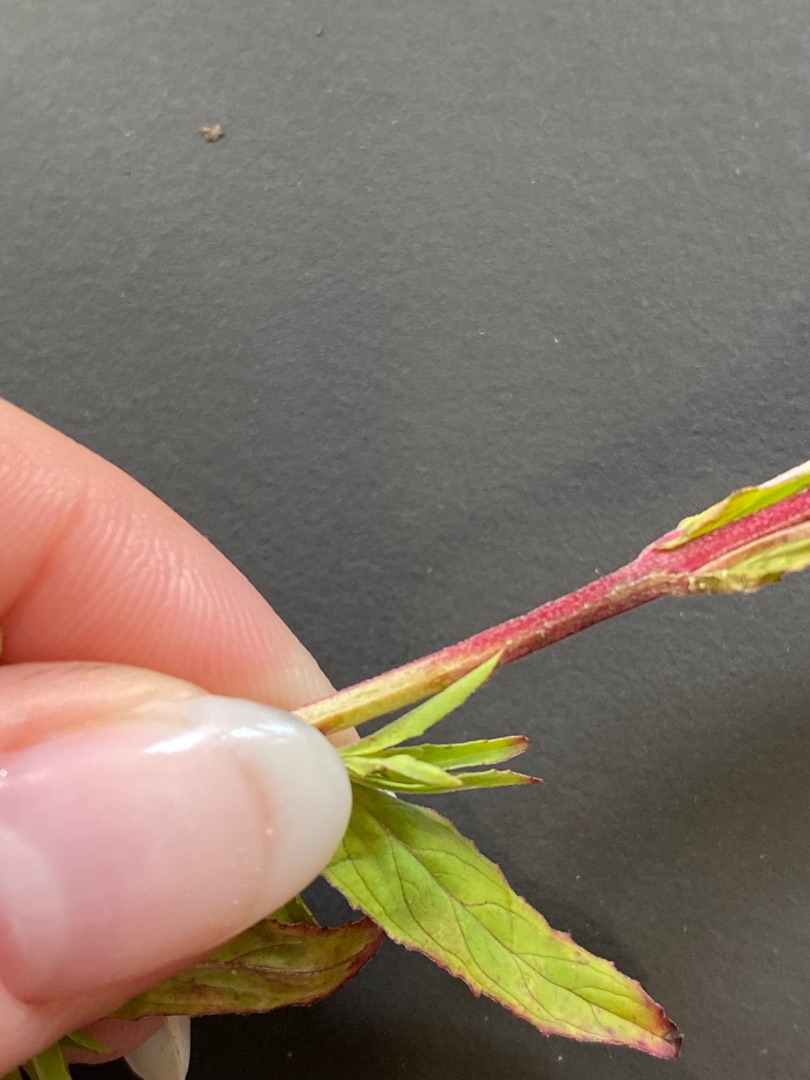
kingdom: Plantae
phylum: Tracheophyta
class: Magnoliopsida
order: Myrtales
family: Onagraceae
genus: Epilobium
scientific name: Epilobium lamyi
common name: Rank dueurt
